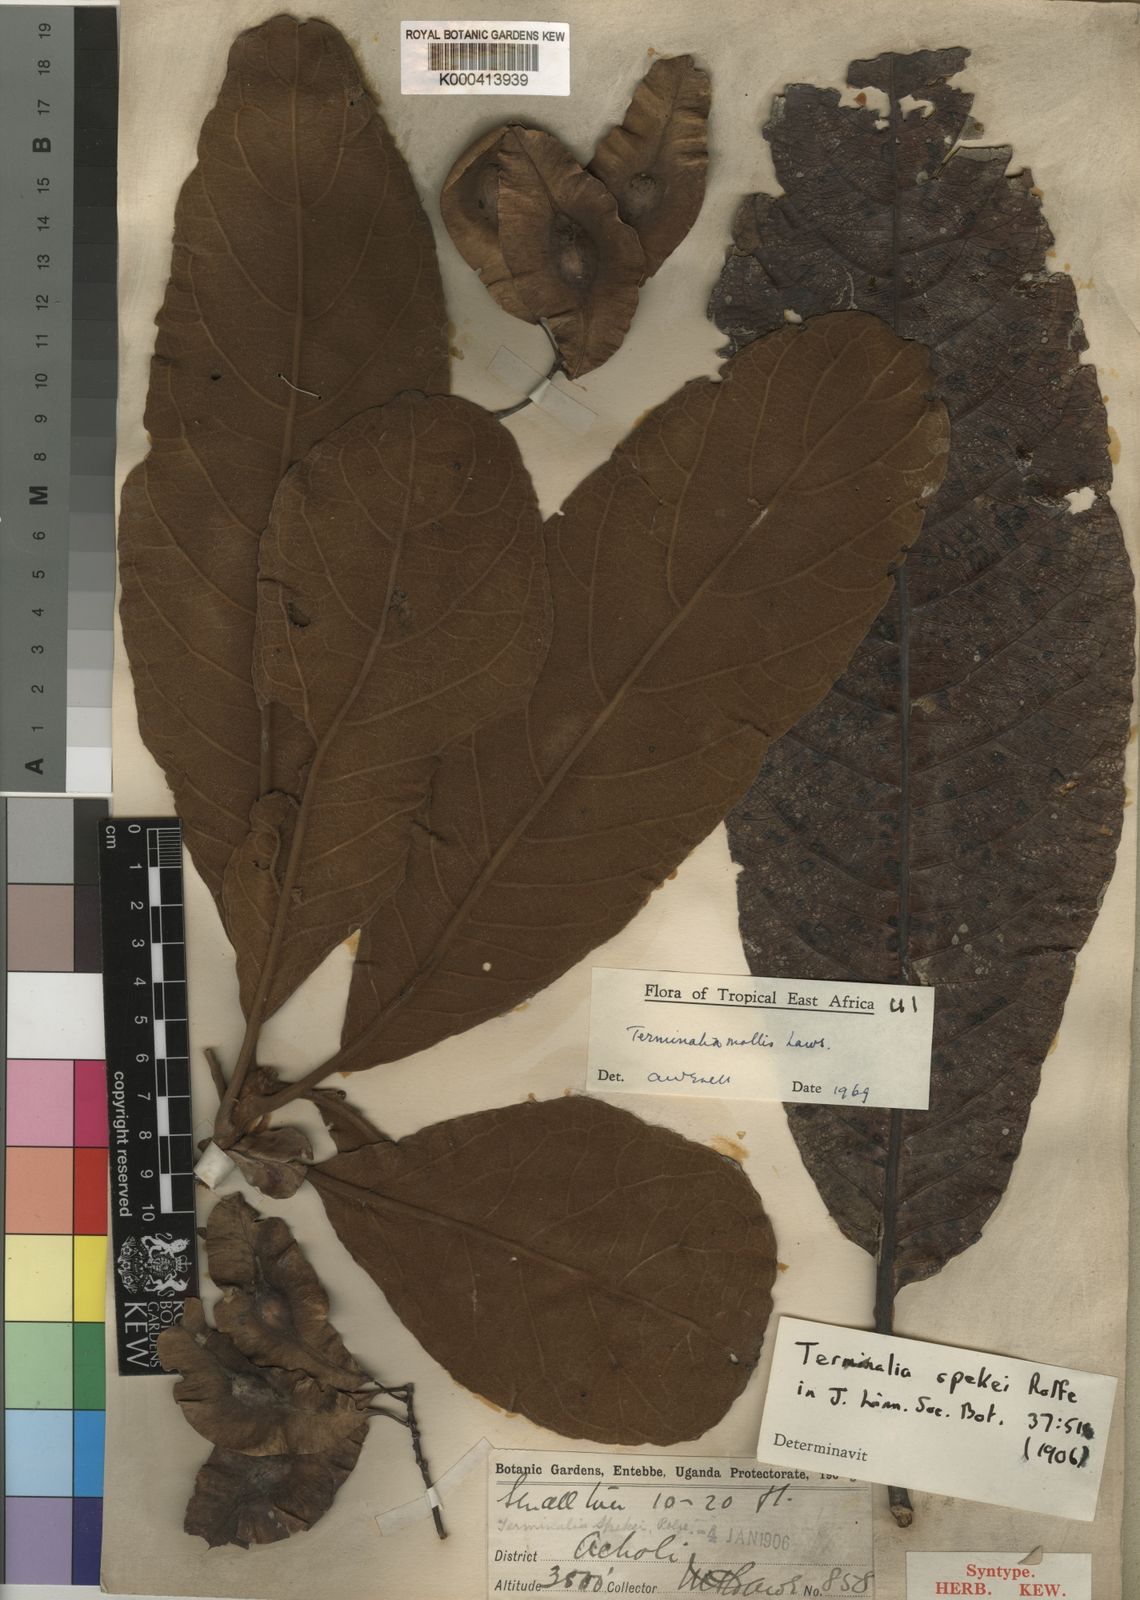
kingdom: Plantae
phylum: Tracheophyta
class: Magnoliopsida
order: Myrtales
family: Combretaceae
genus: Terminalia
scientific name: Terminalia mollis
